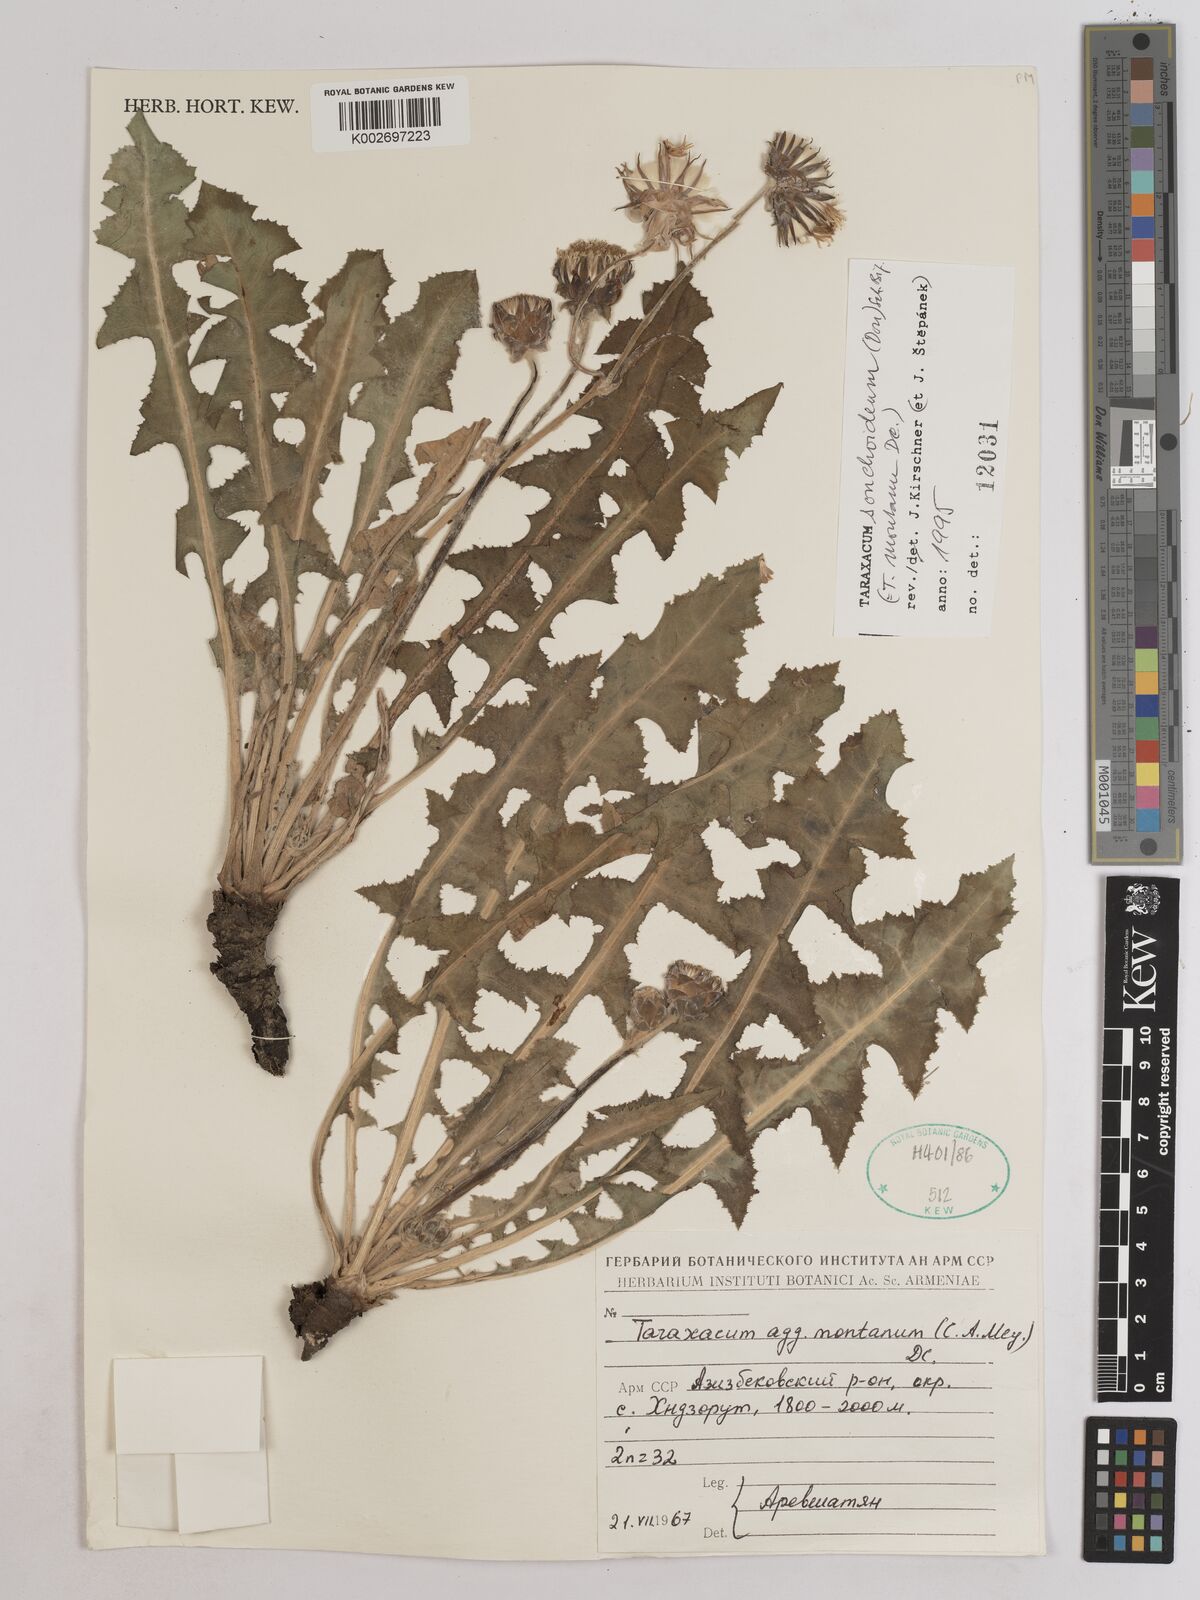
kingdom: Plantae
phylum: Tracheophyta
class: Magnoliopsida
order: Asterales
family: Asteraceae
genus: Taraxacum
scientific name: Taraxacum sonchoides
